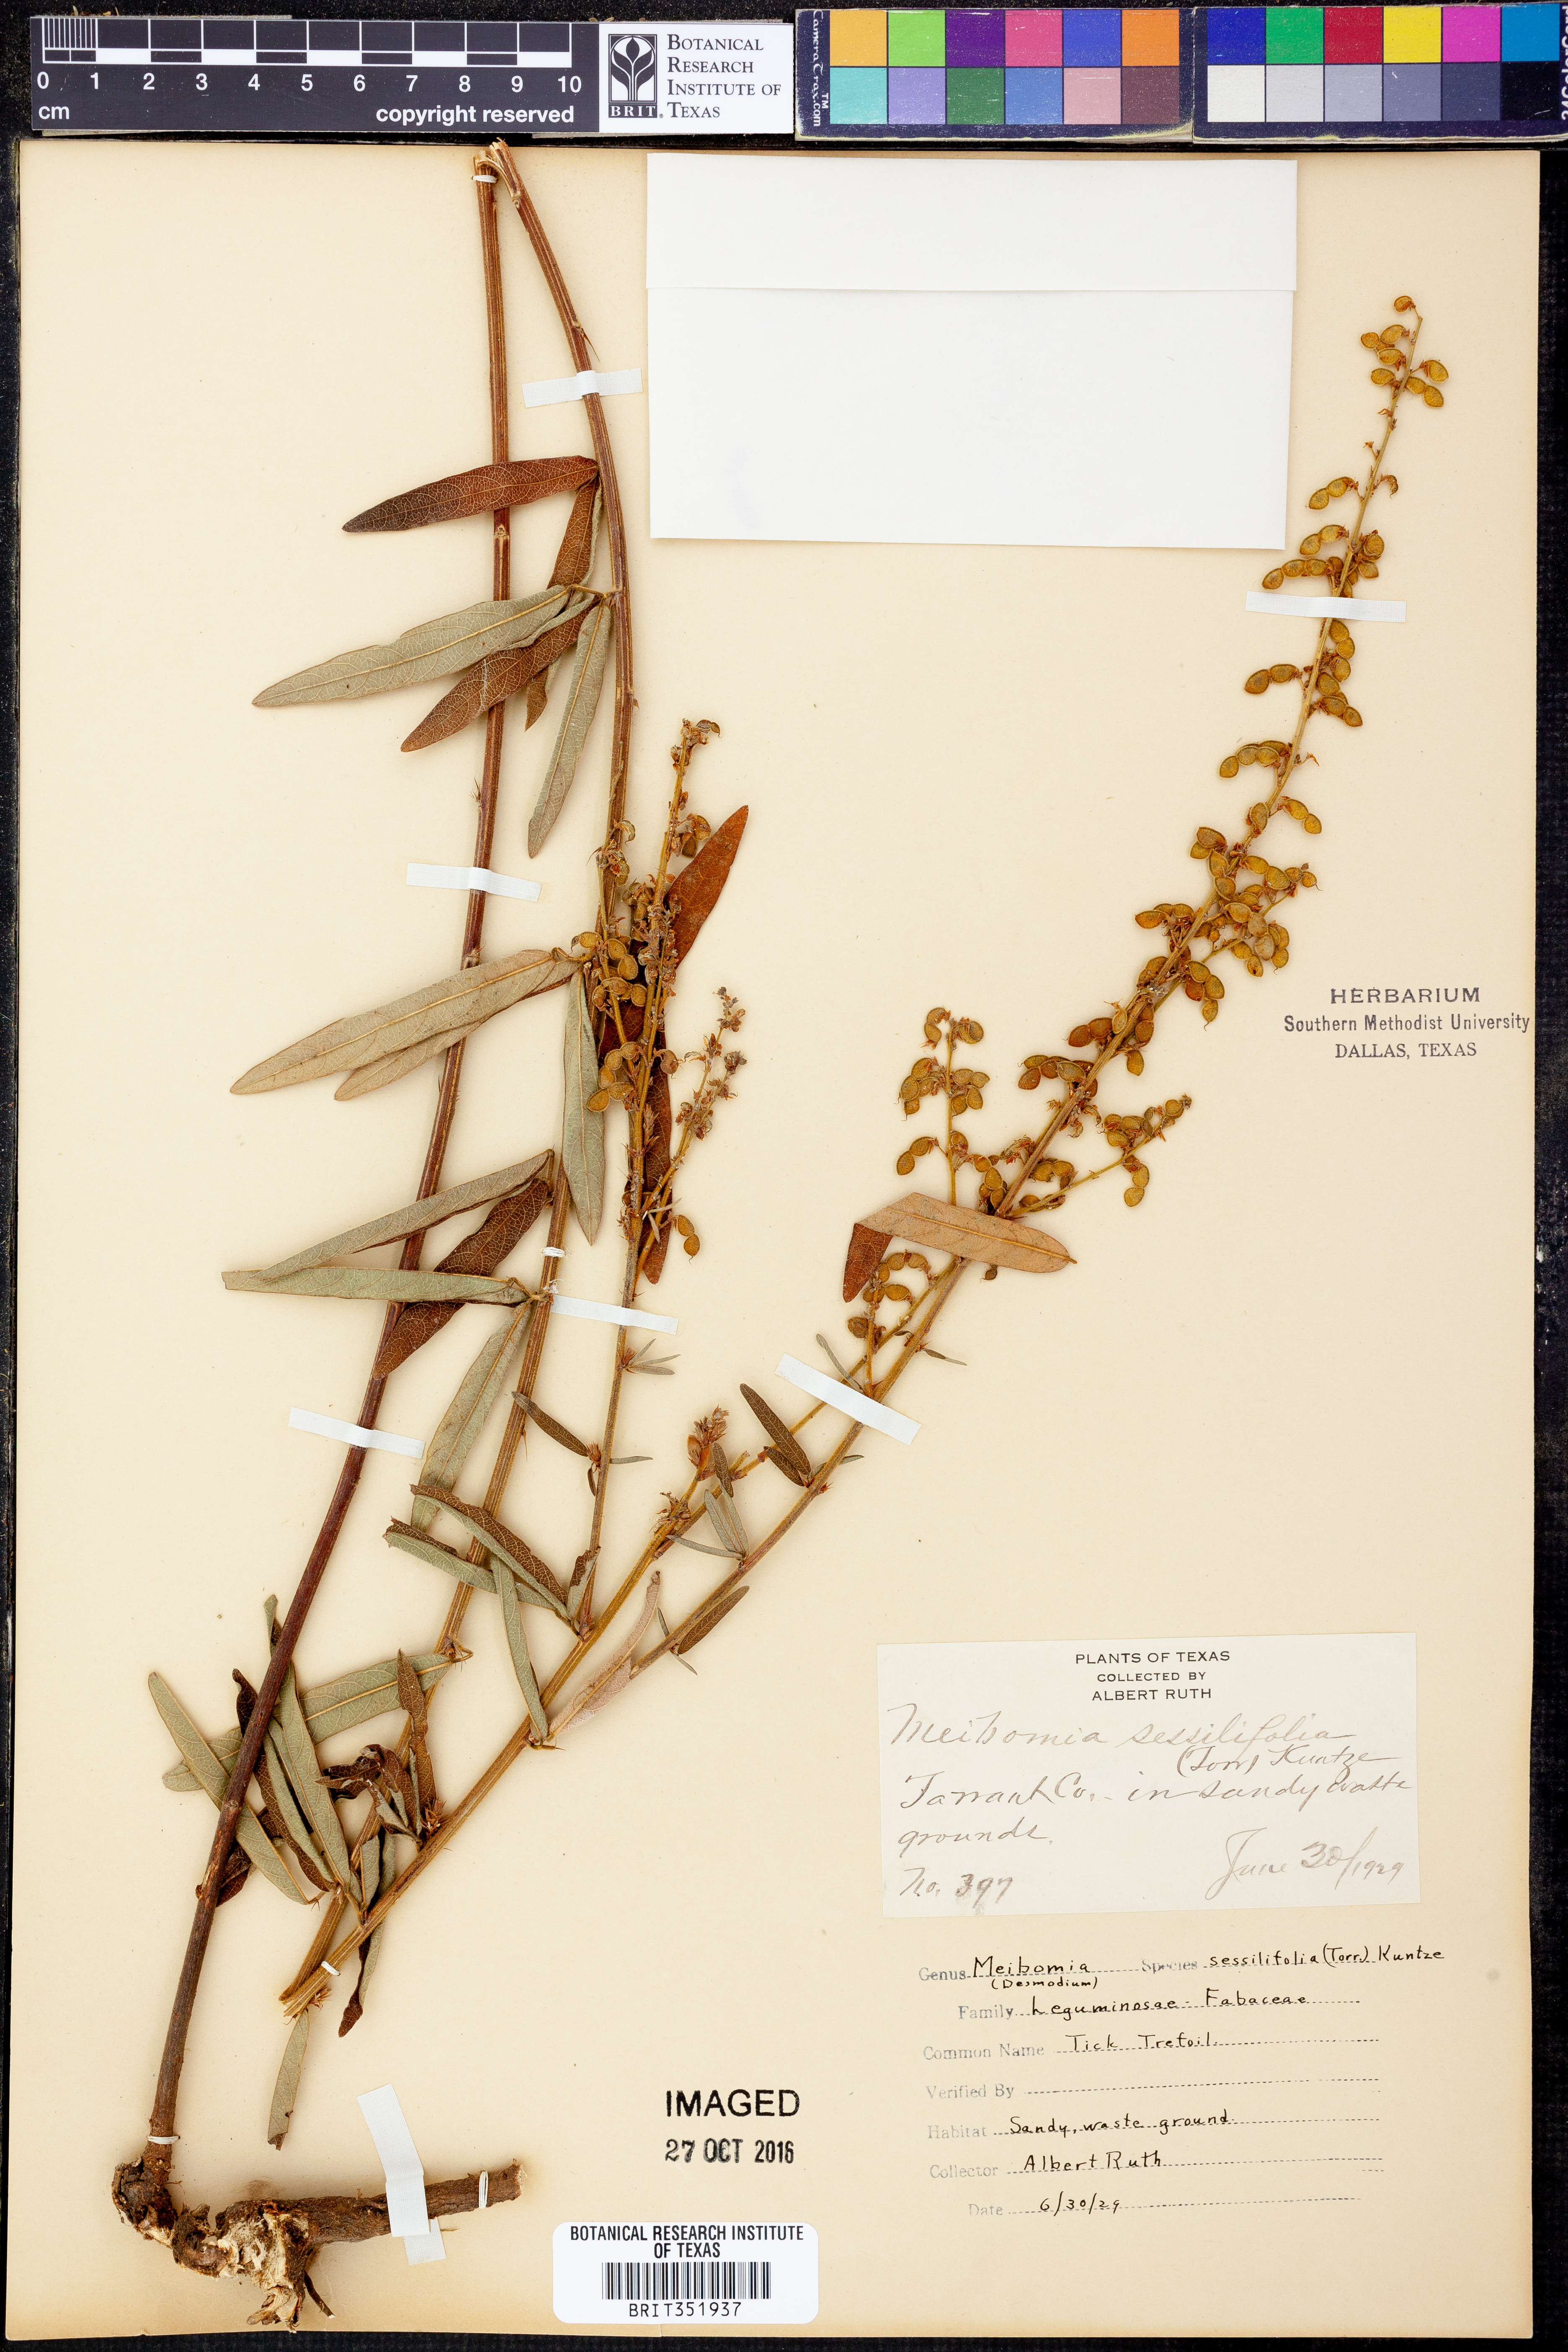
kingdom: Plantae
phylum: Tracheophyta
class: Magnoliopsida
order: Fabales
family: Fabaceae
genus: Desmodium
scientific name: Desmodium sessilifolium
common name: Sessile tick-clover
